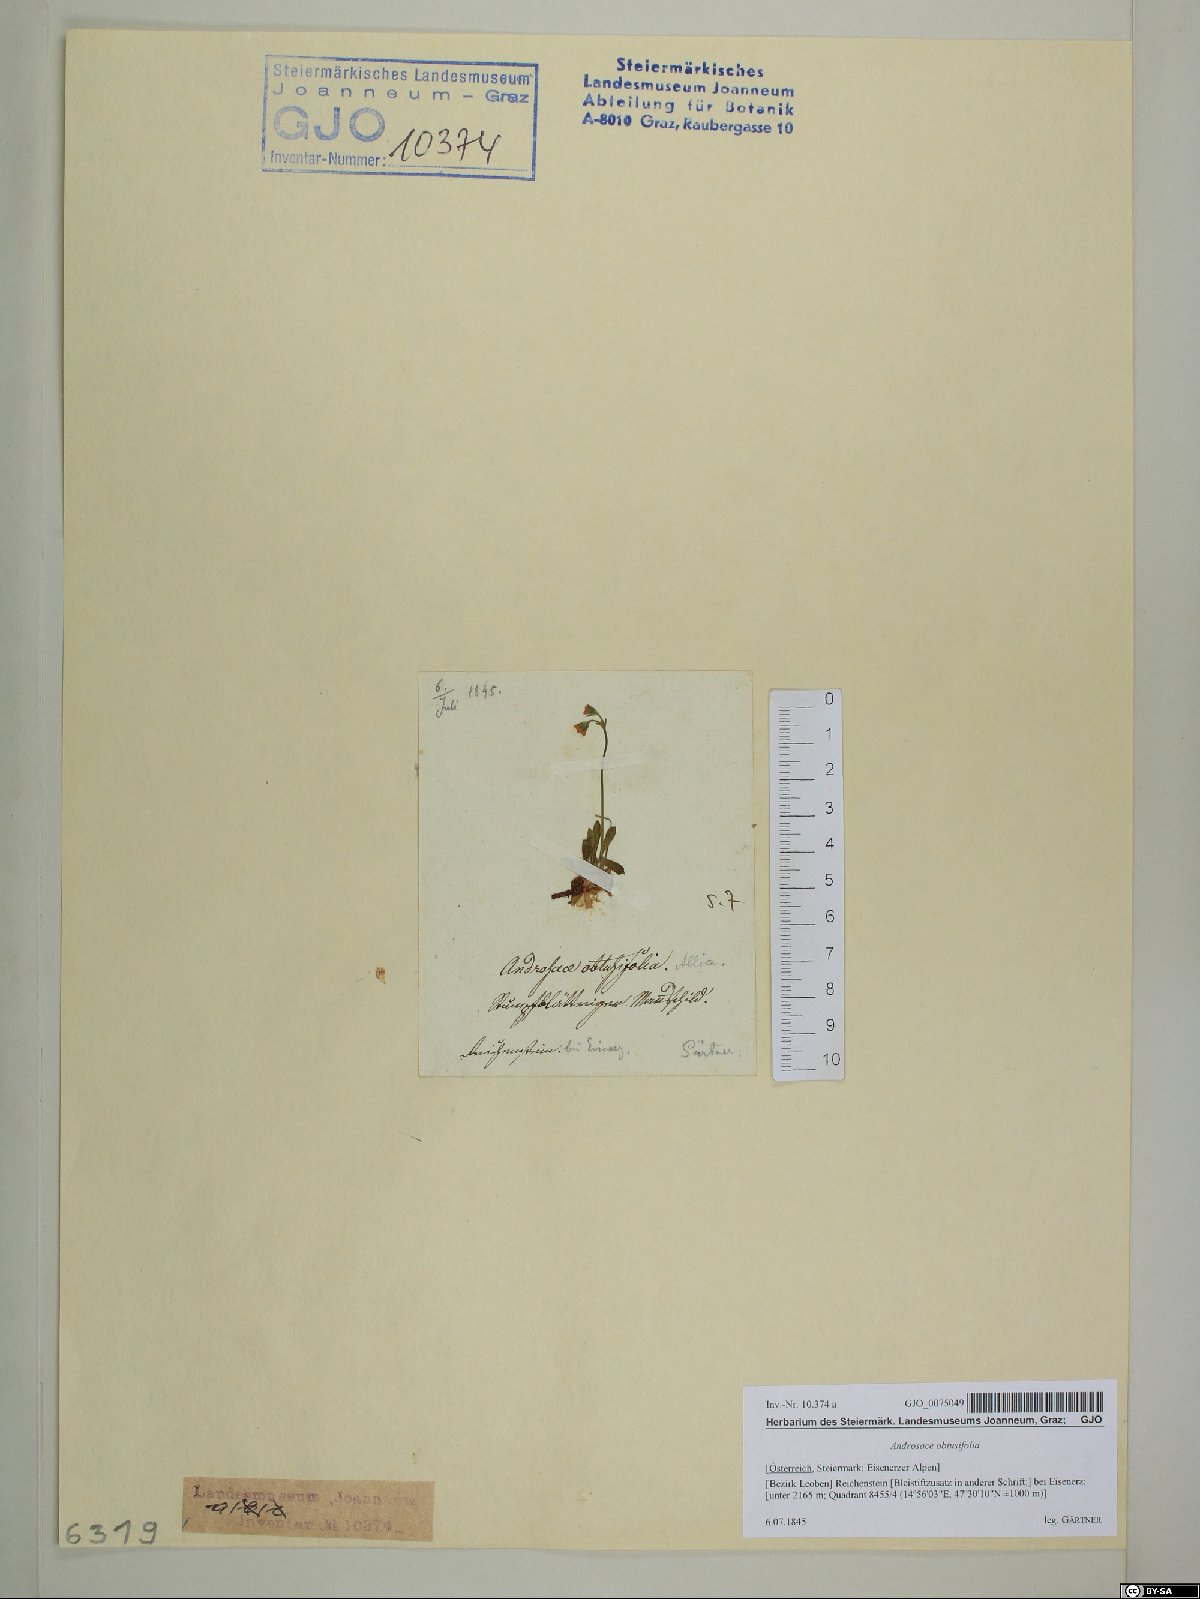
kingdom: Plantae
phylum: Tracheophyta
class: Magnoliopsida
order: Ericales
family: Primulaceae
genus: Androsace
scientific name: Androsace obtusifolia
